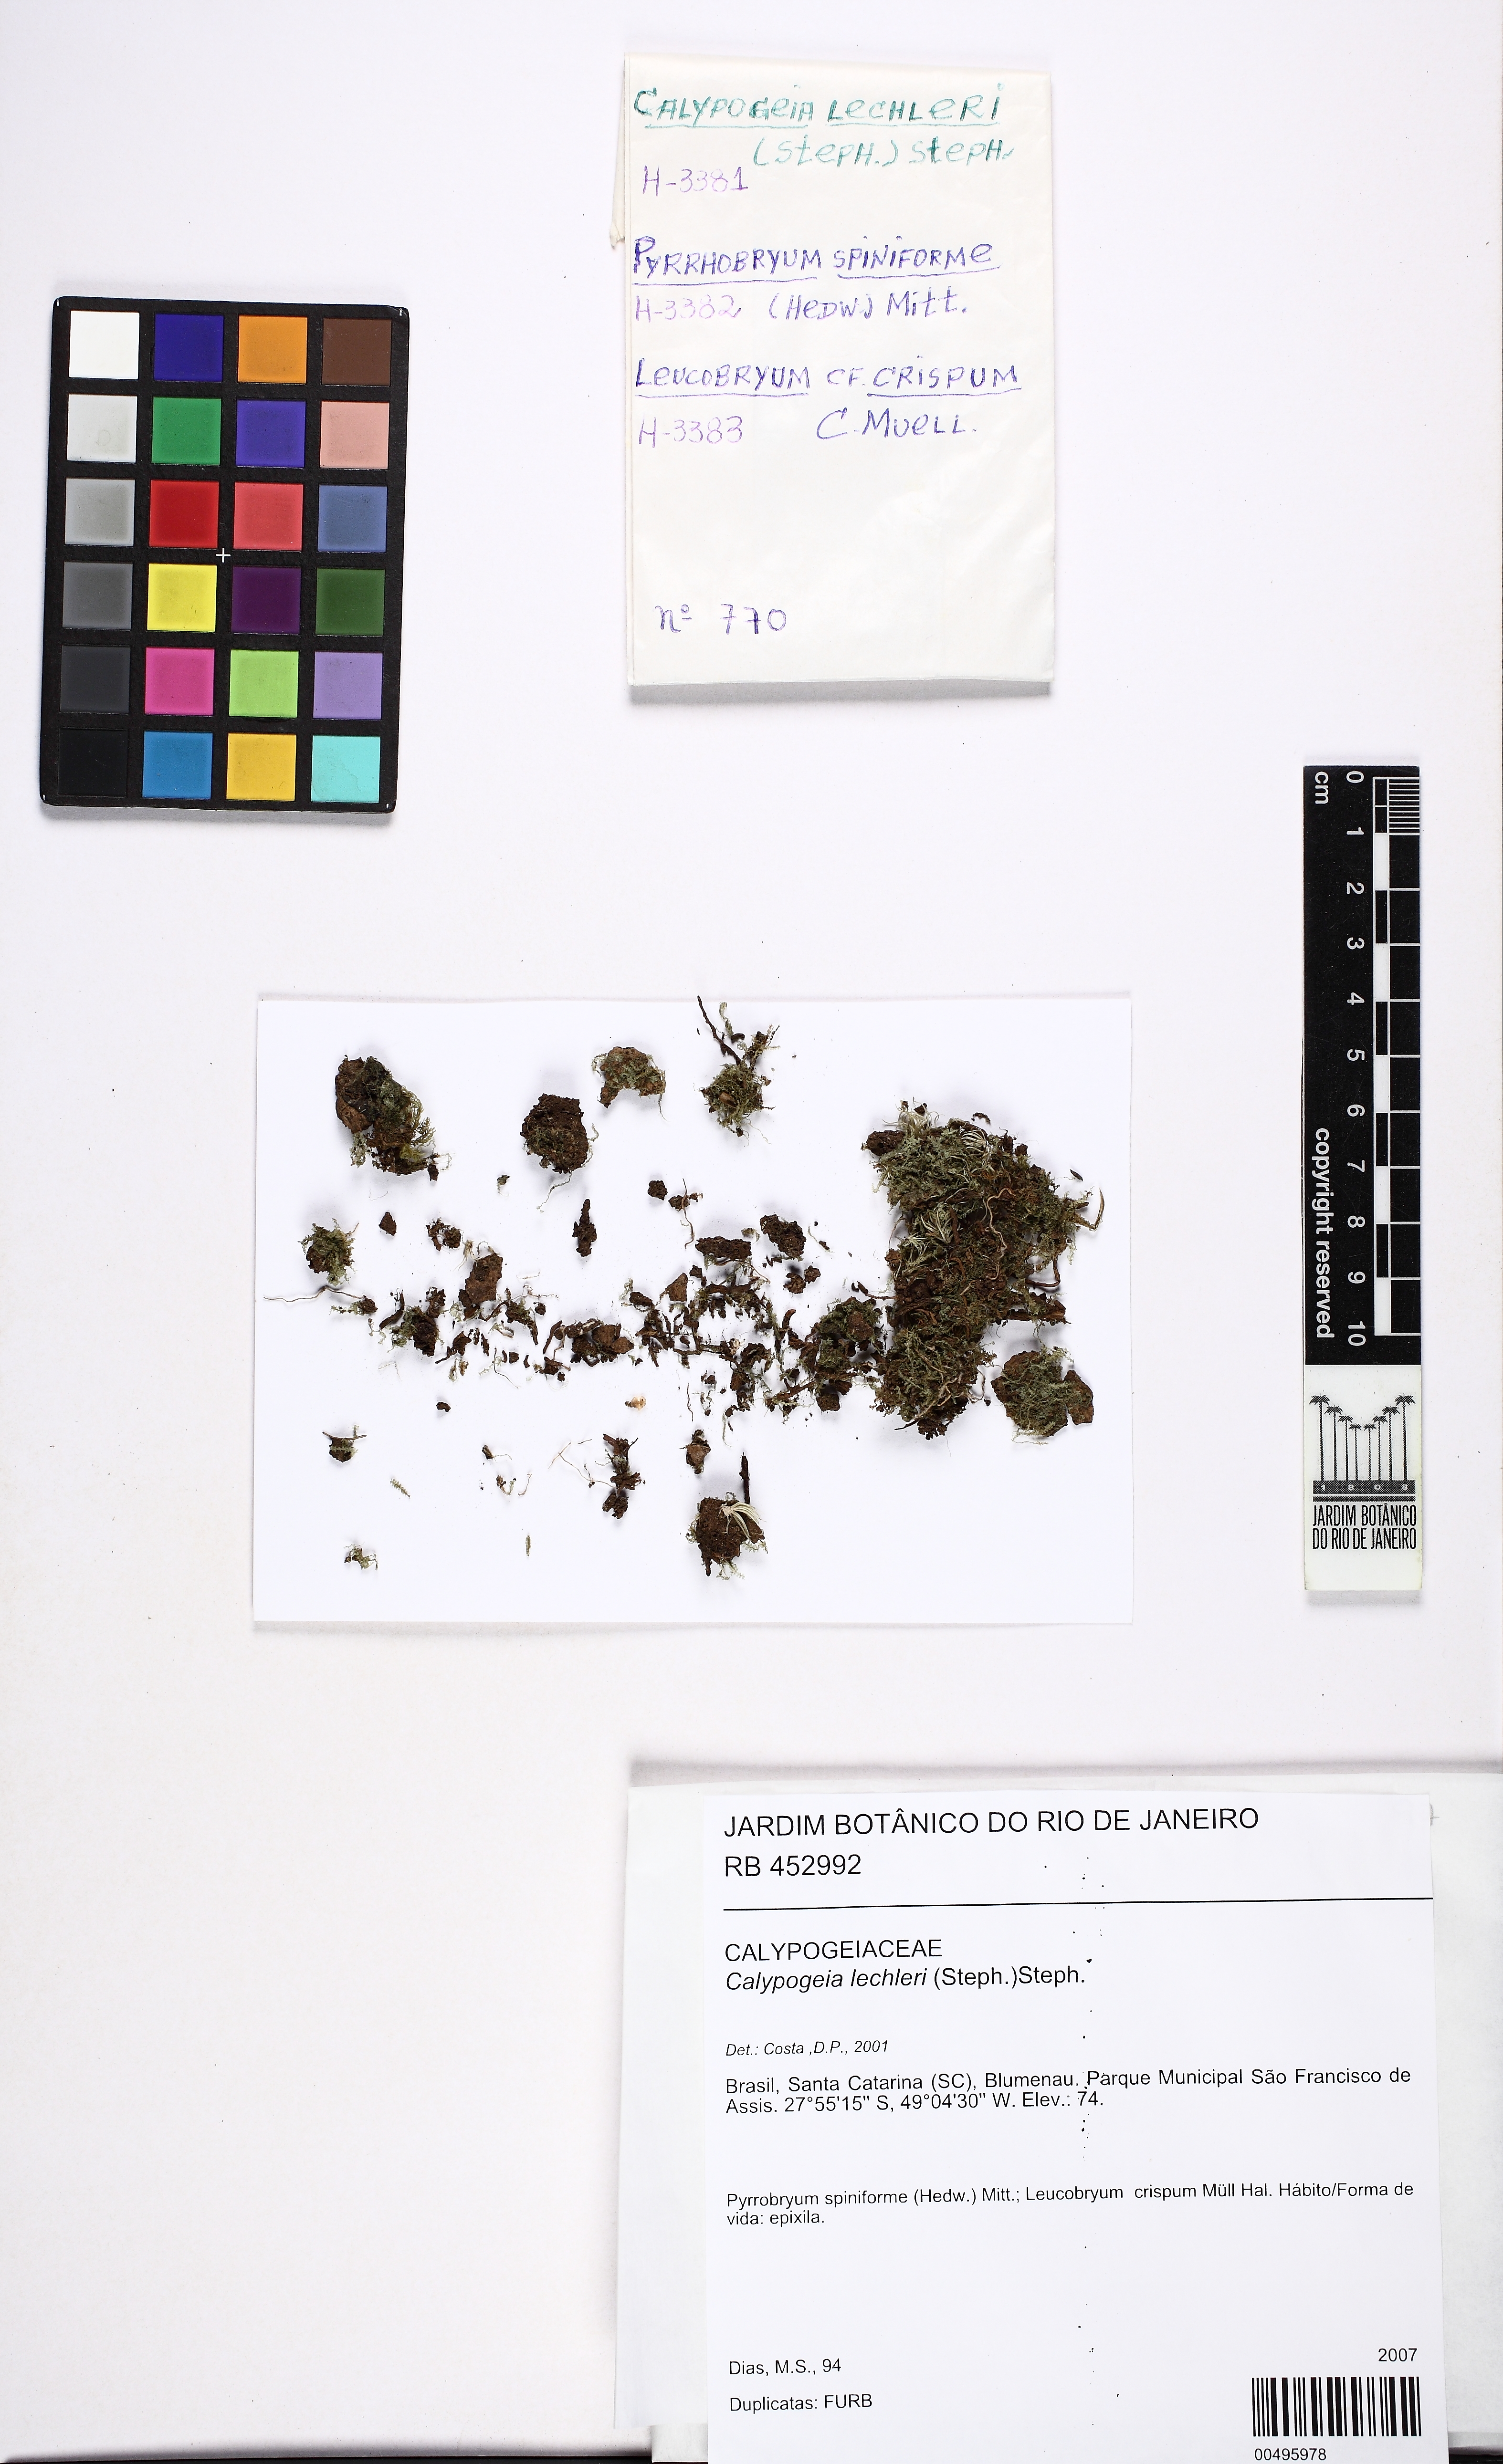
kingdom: Plantae
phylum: Marchantiophyta
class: Jungermanniopsida
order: Jungermanniales
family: Calypogeiaceae
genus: Calypogeia
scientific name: Calypogeia lechleri
